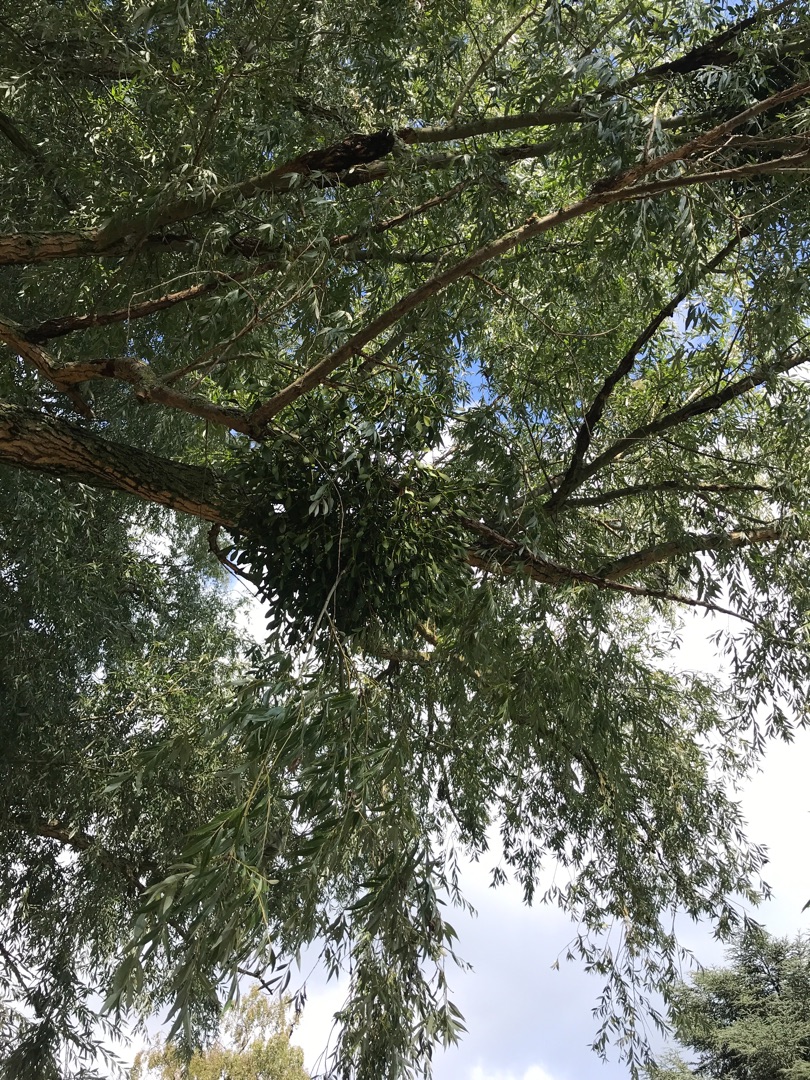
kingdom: Plantae
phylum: Tracheophyta
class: Magnoliopsida
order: Santalales
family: Viscaceae
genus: Viscum
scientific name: Viscum album
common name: Mistelten
